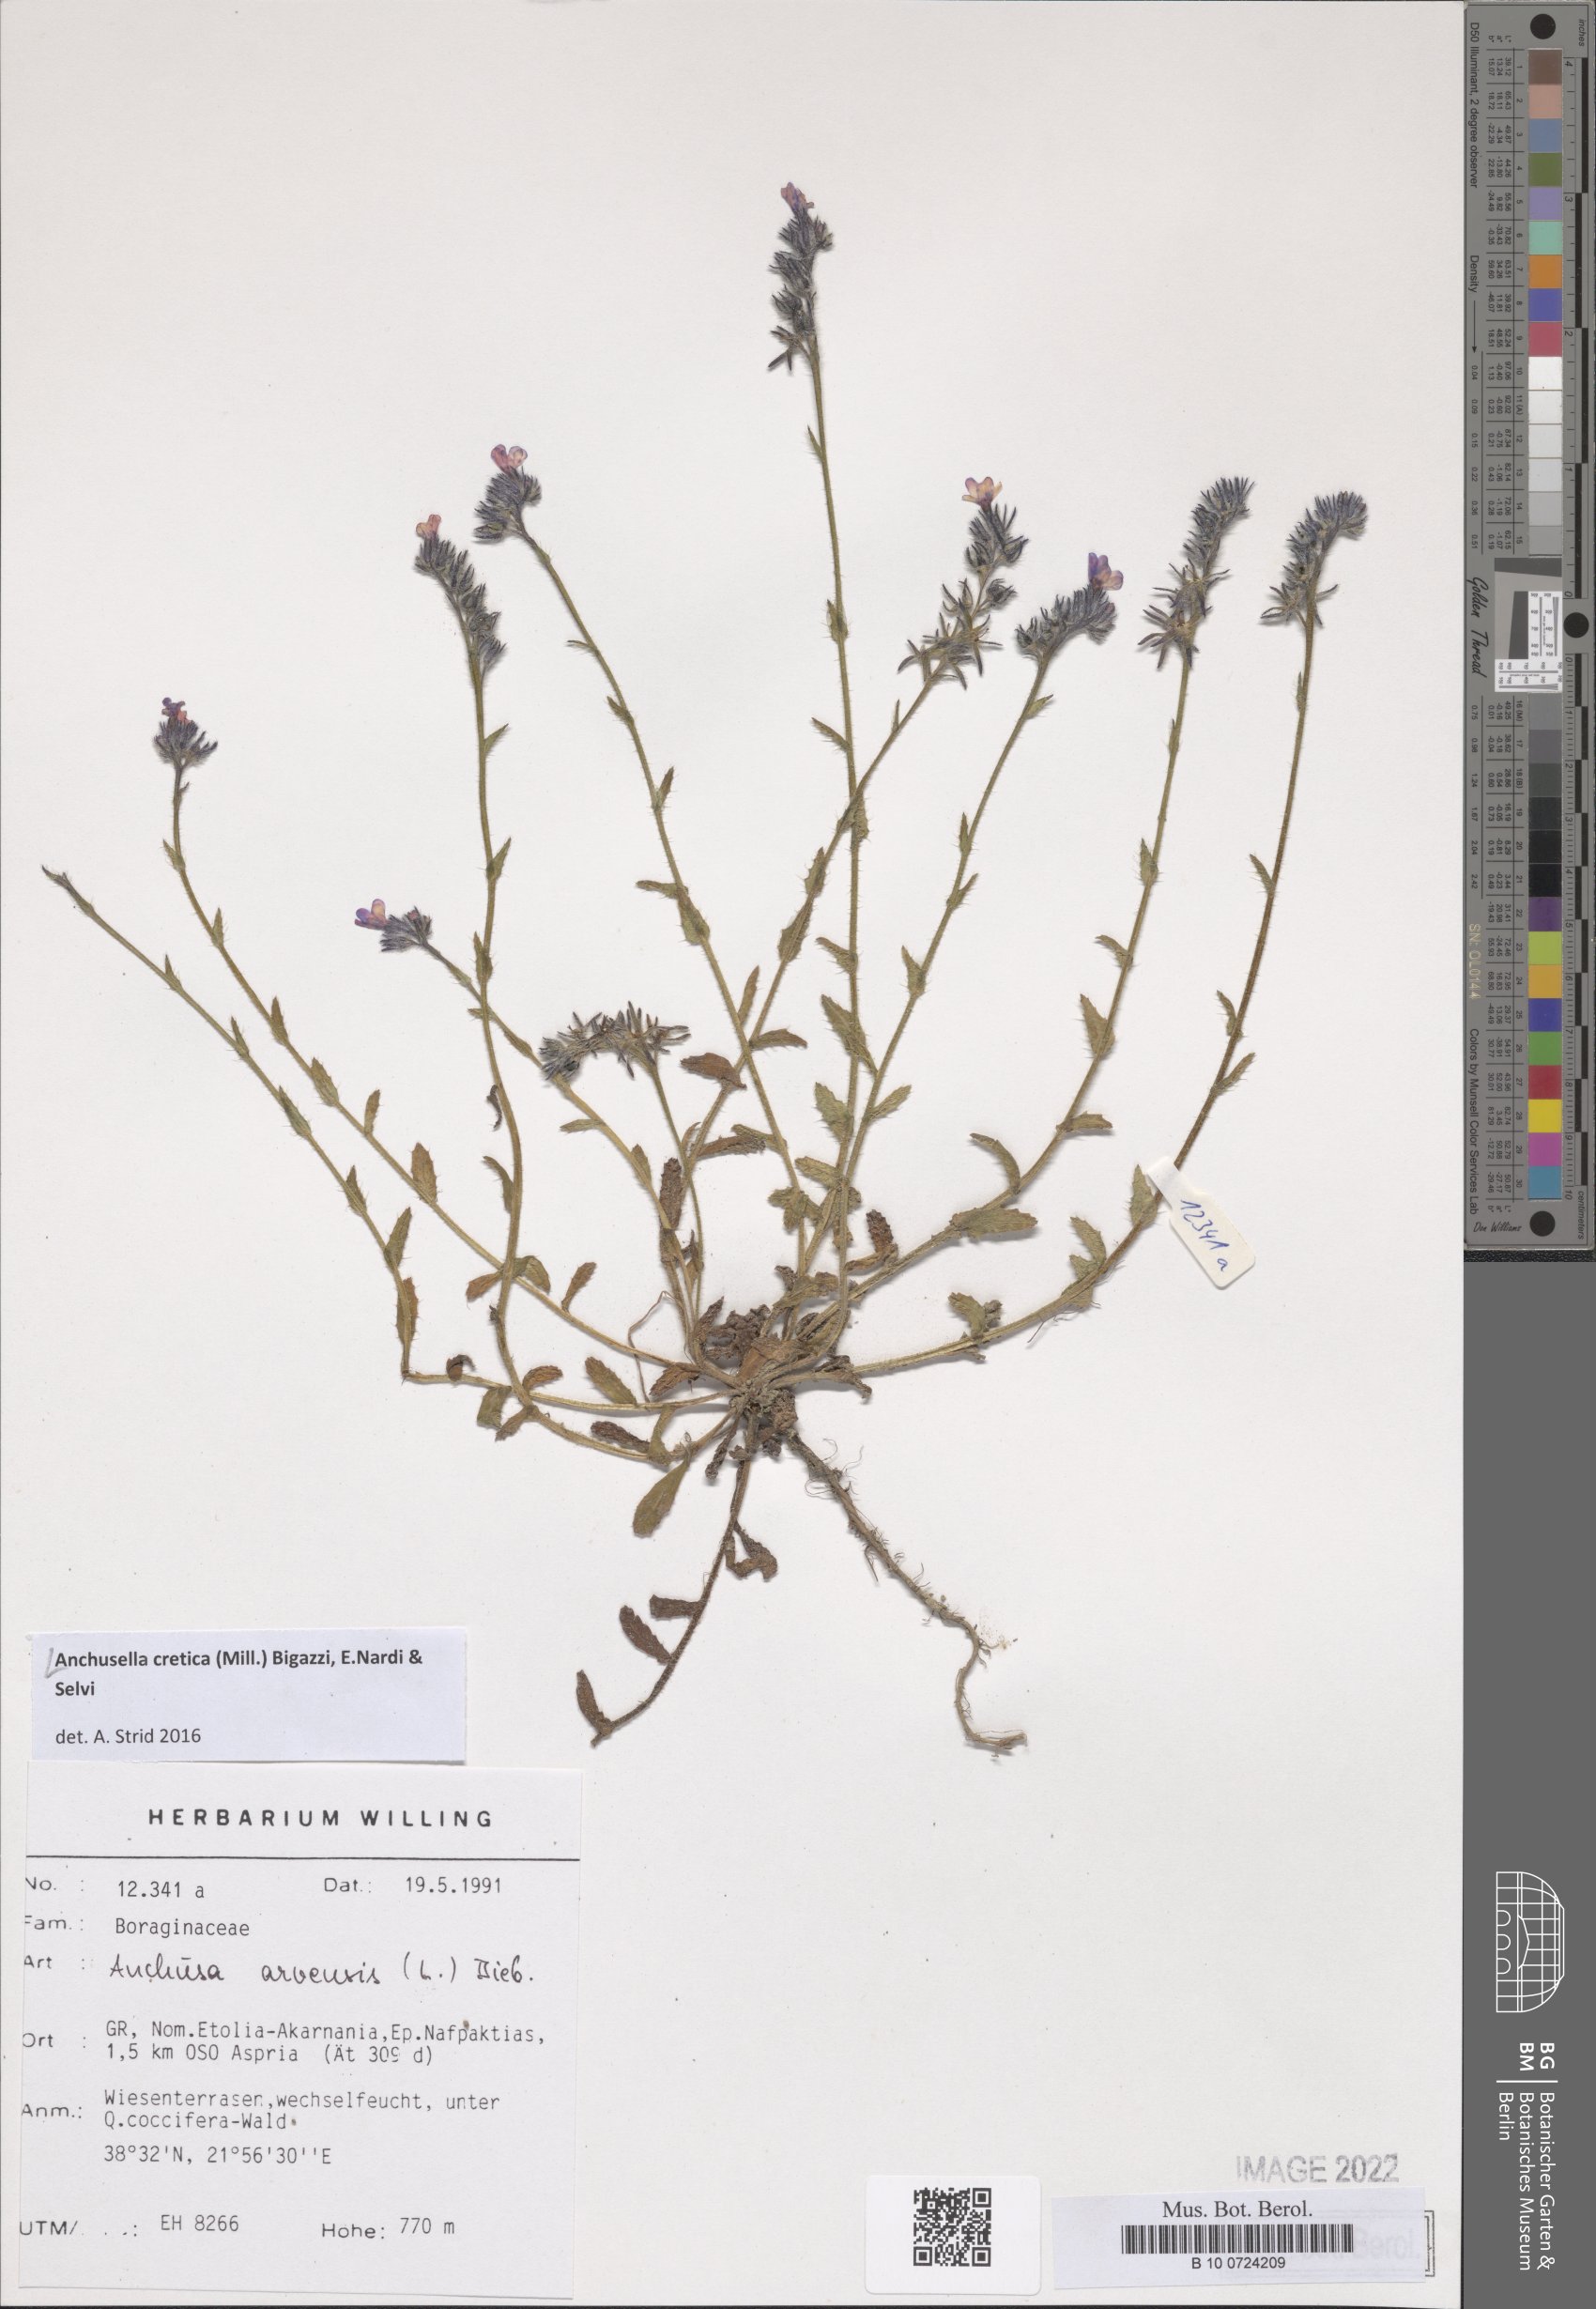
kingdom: Plantae
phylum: Tracheophyta
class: Magnoliopsida
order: Boraginales
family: Boraginaceae
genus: Anchusella
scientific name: Anchusella cretica
